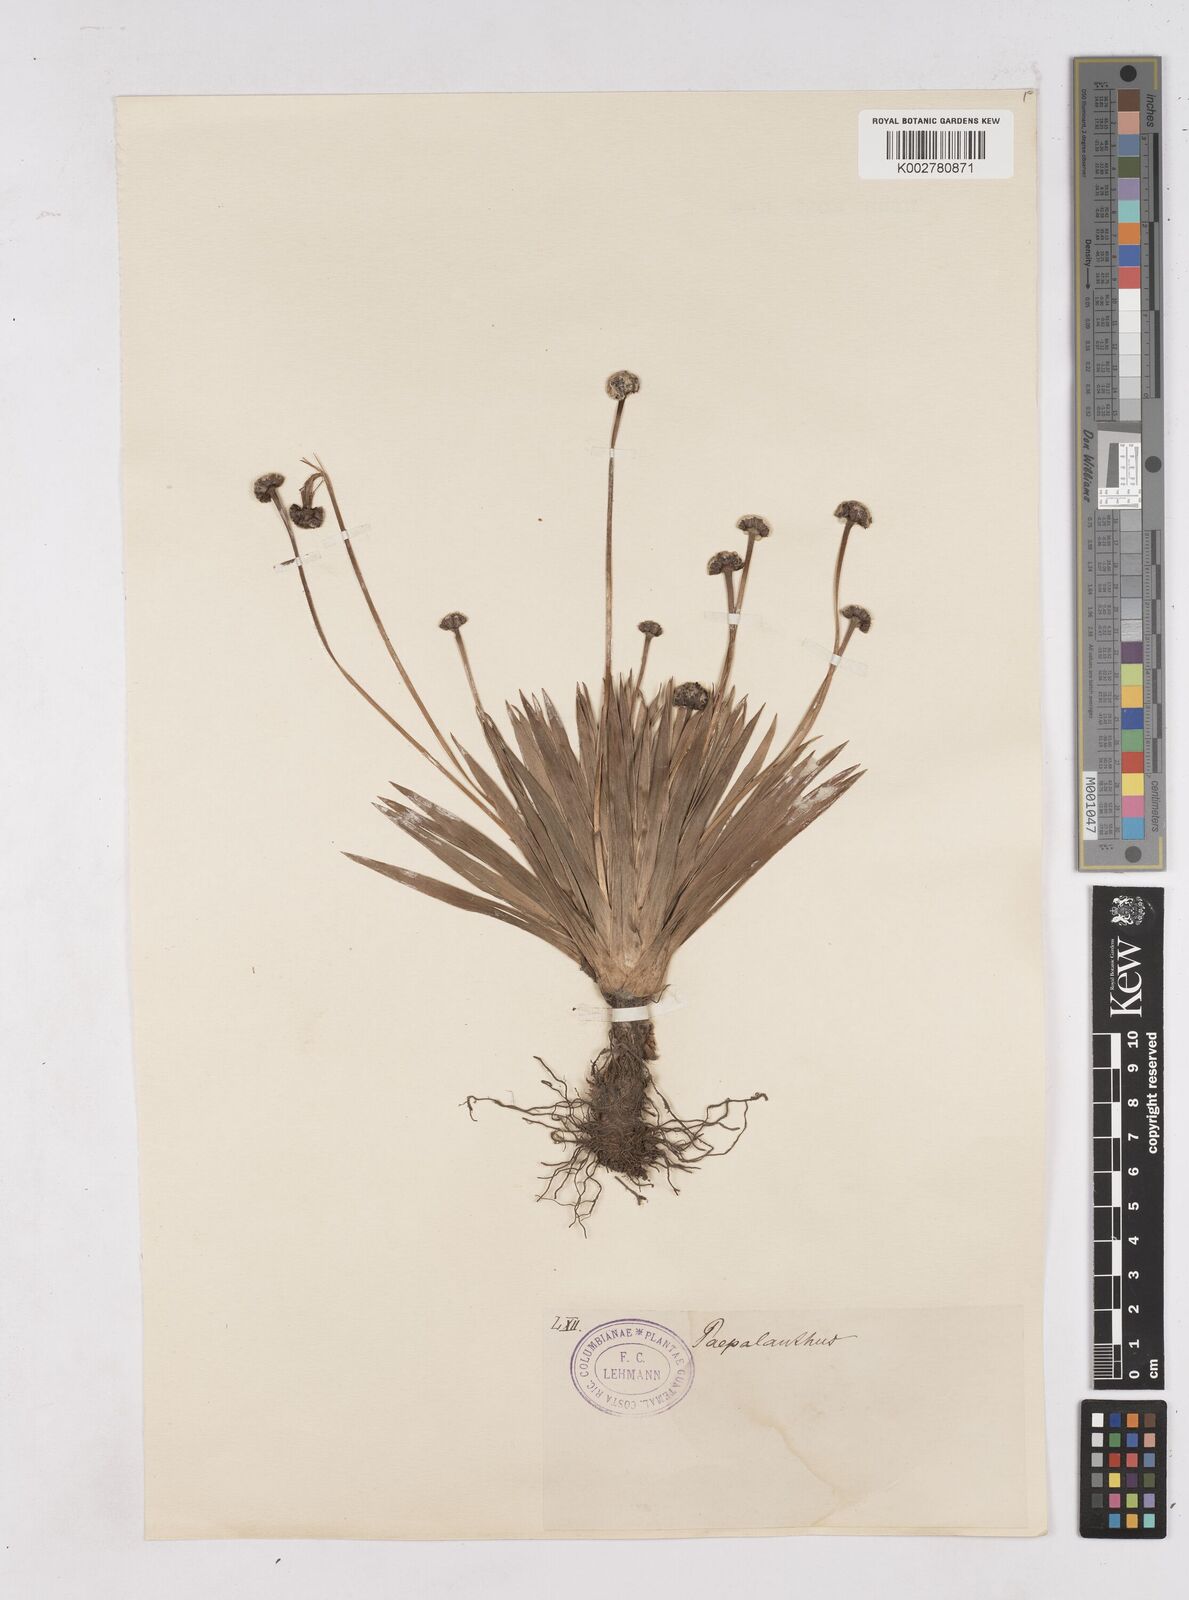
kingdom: Plantae
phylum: Tracheophyta
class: Liliopsida
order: Poales
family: Eriocaulaceae
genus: Paepalanthus
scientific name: Paepalanthus
